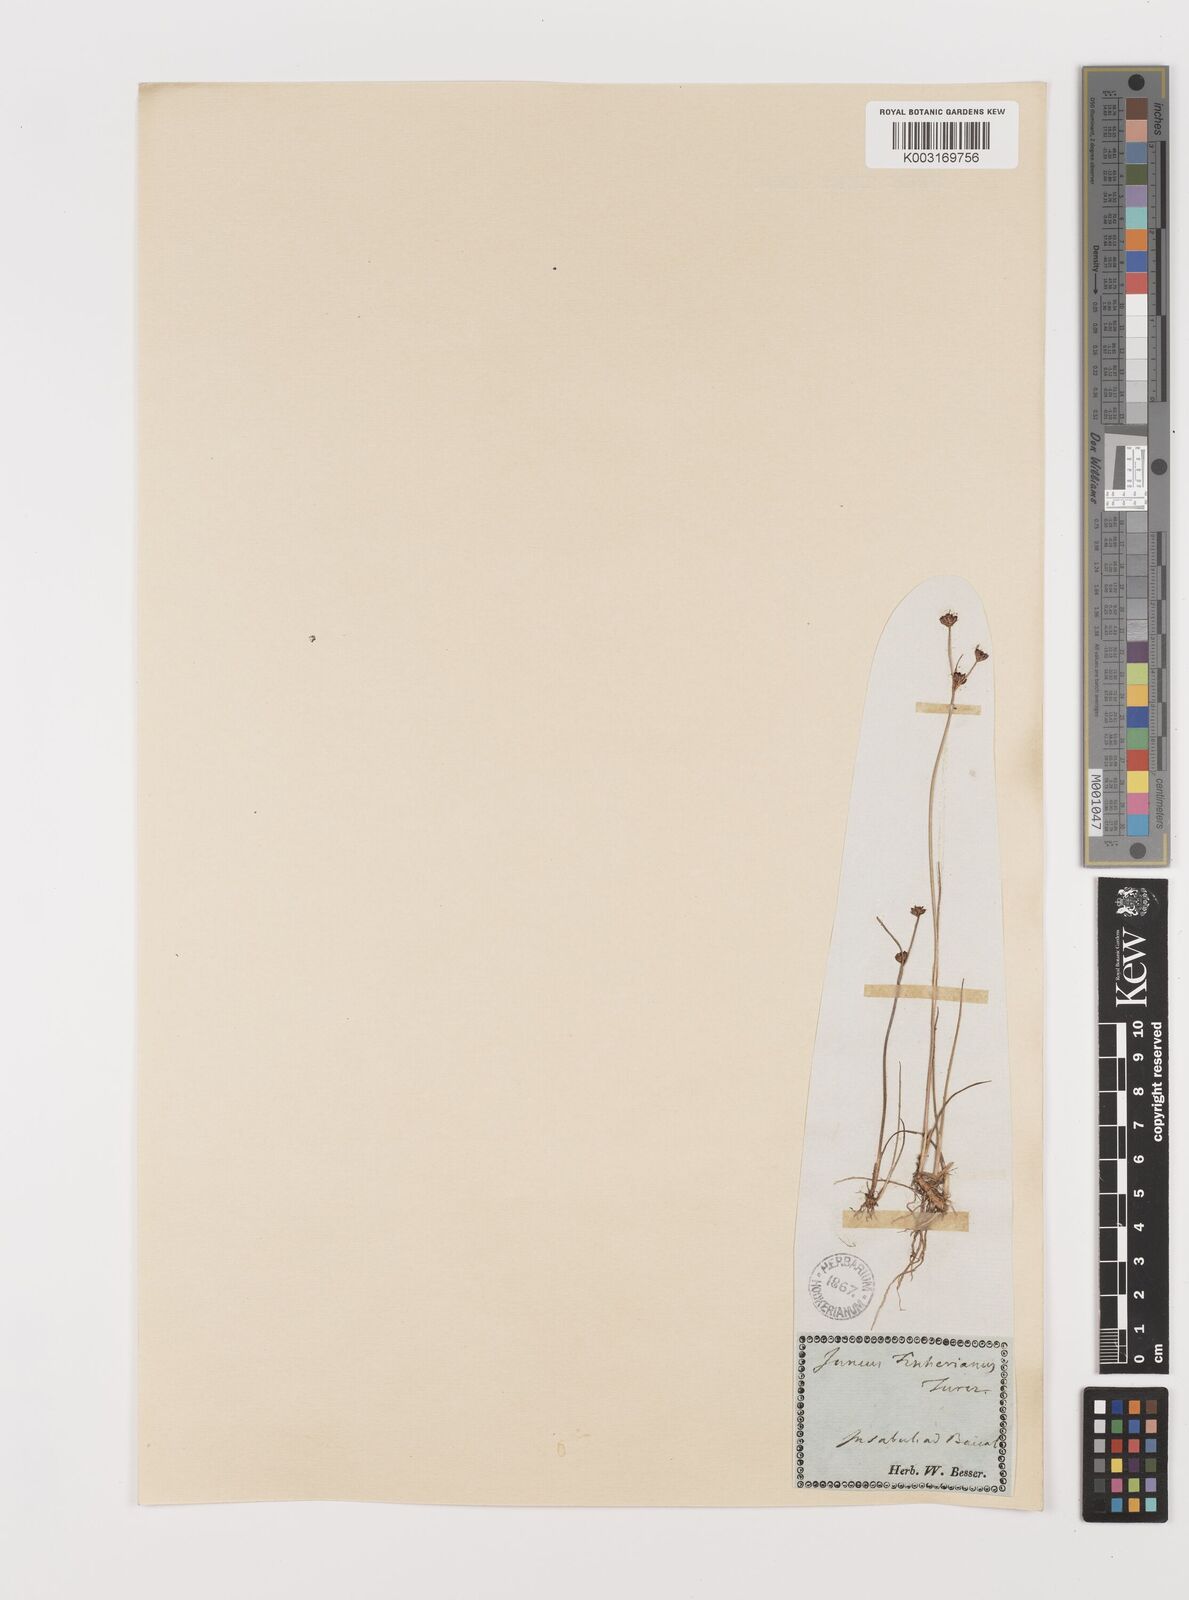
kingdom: Plantae
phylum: Tracheophyta
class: Liliopsida
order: Poales
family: Juncaceae
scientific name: Juncaceae
